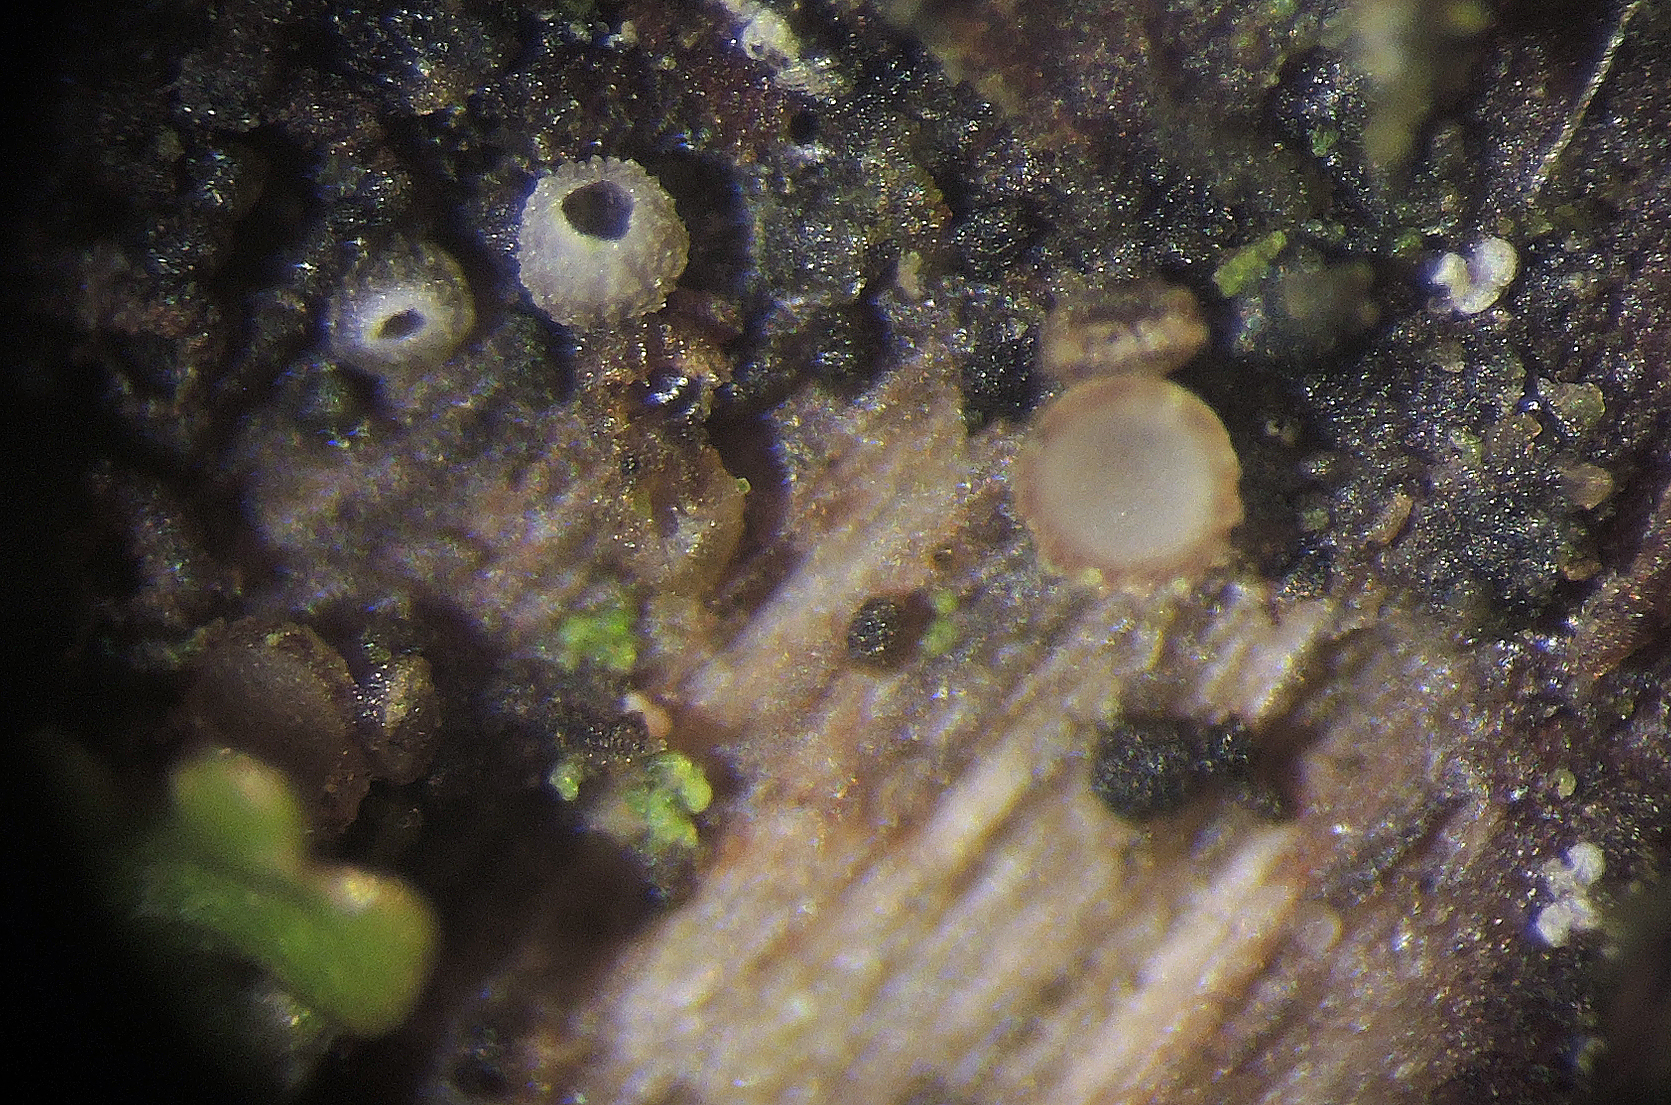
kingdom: Fungi
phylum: Ascomycota
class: Leotiomycetes
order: Helotiales
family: Hyaloscyphaceae
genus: Protounguicularia
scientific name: Protounguicularia transiens
